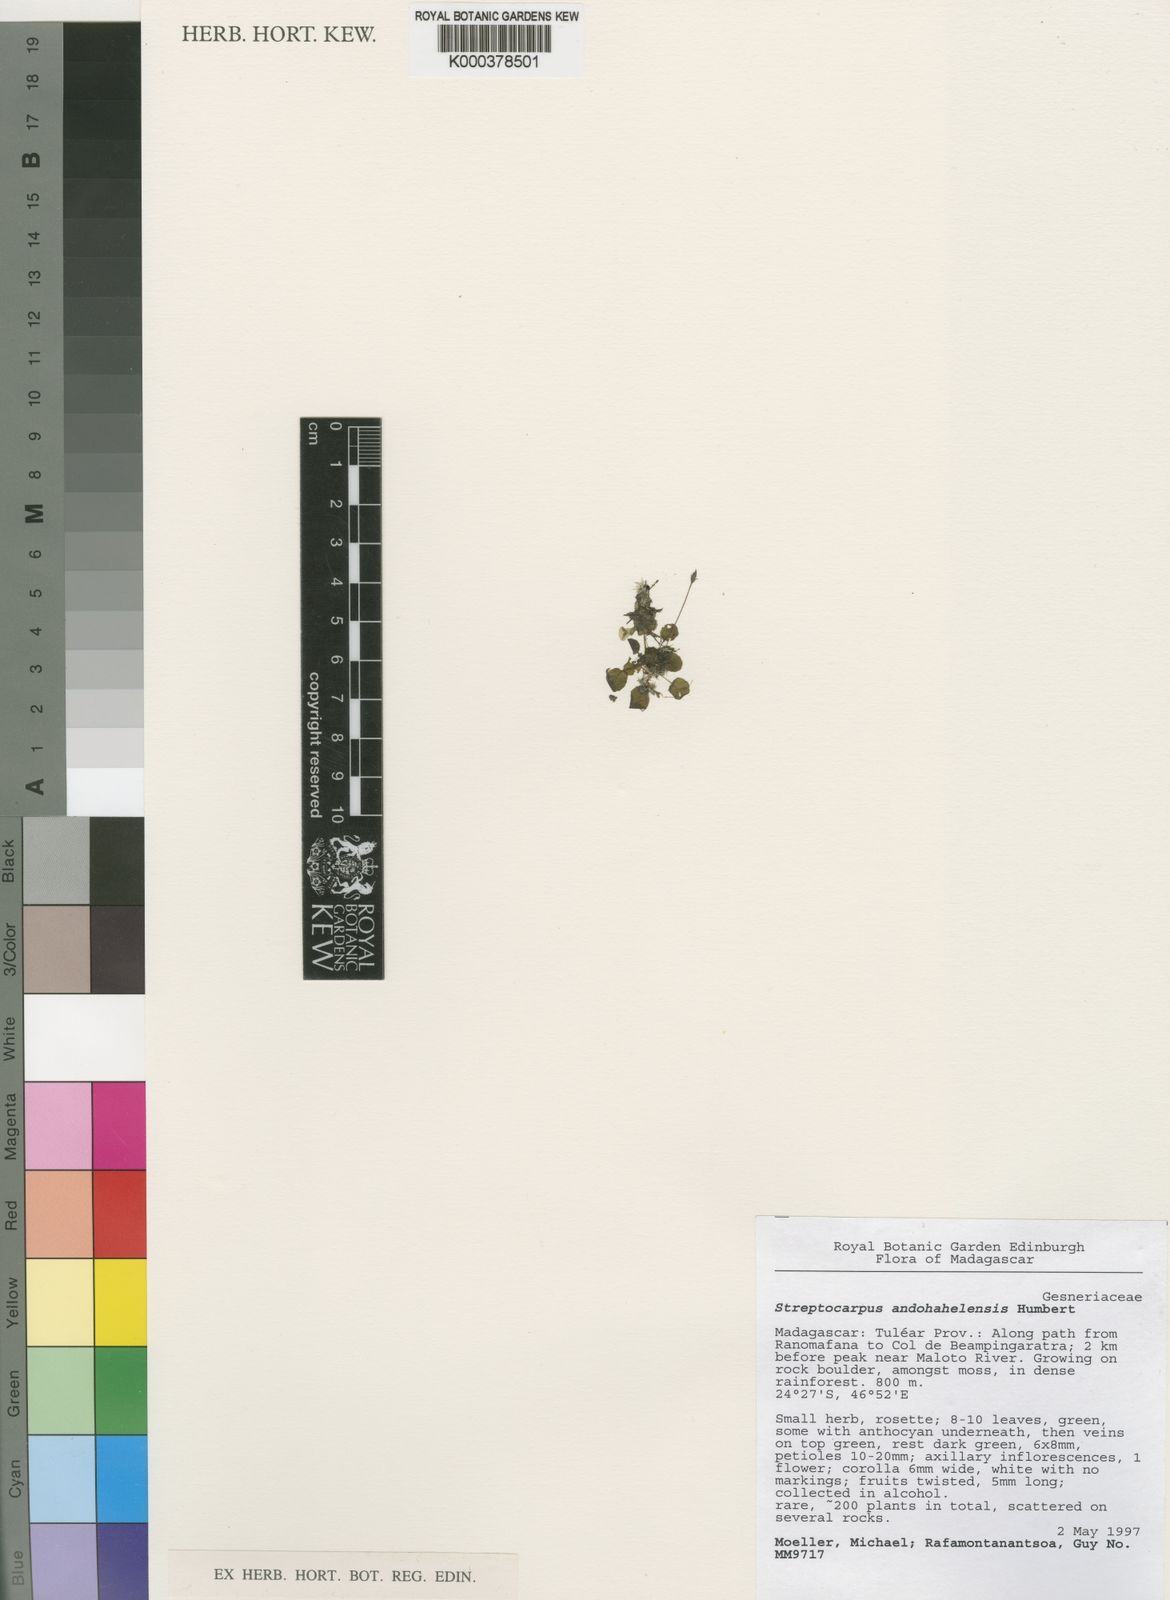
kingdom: Plantae
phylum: Tracheophyta
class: Magnoliopsida
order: Lamiales
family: Gesneriaceae
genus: Streptocarpus
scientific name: Streptocarpus andohahelensis
